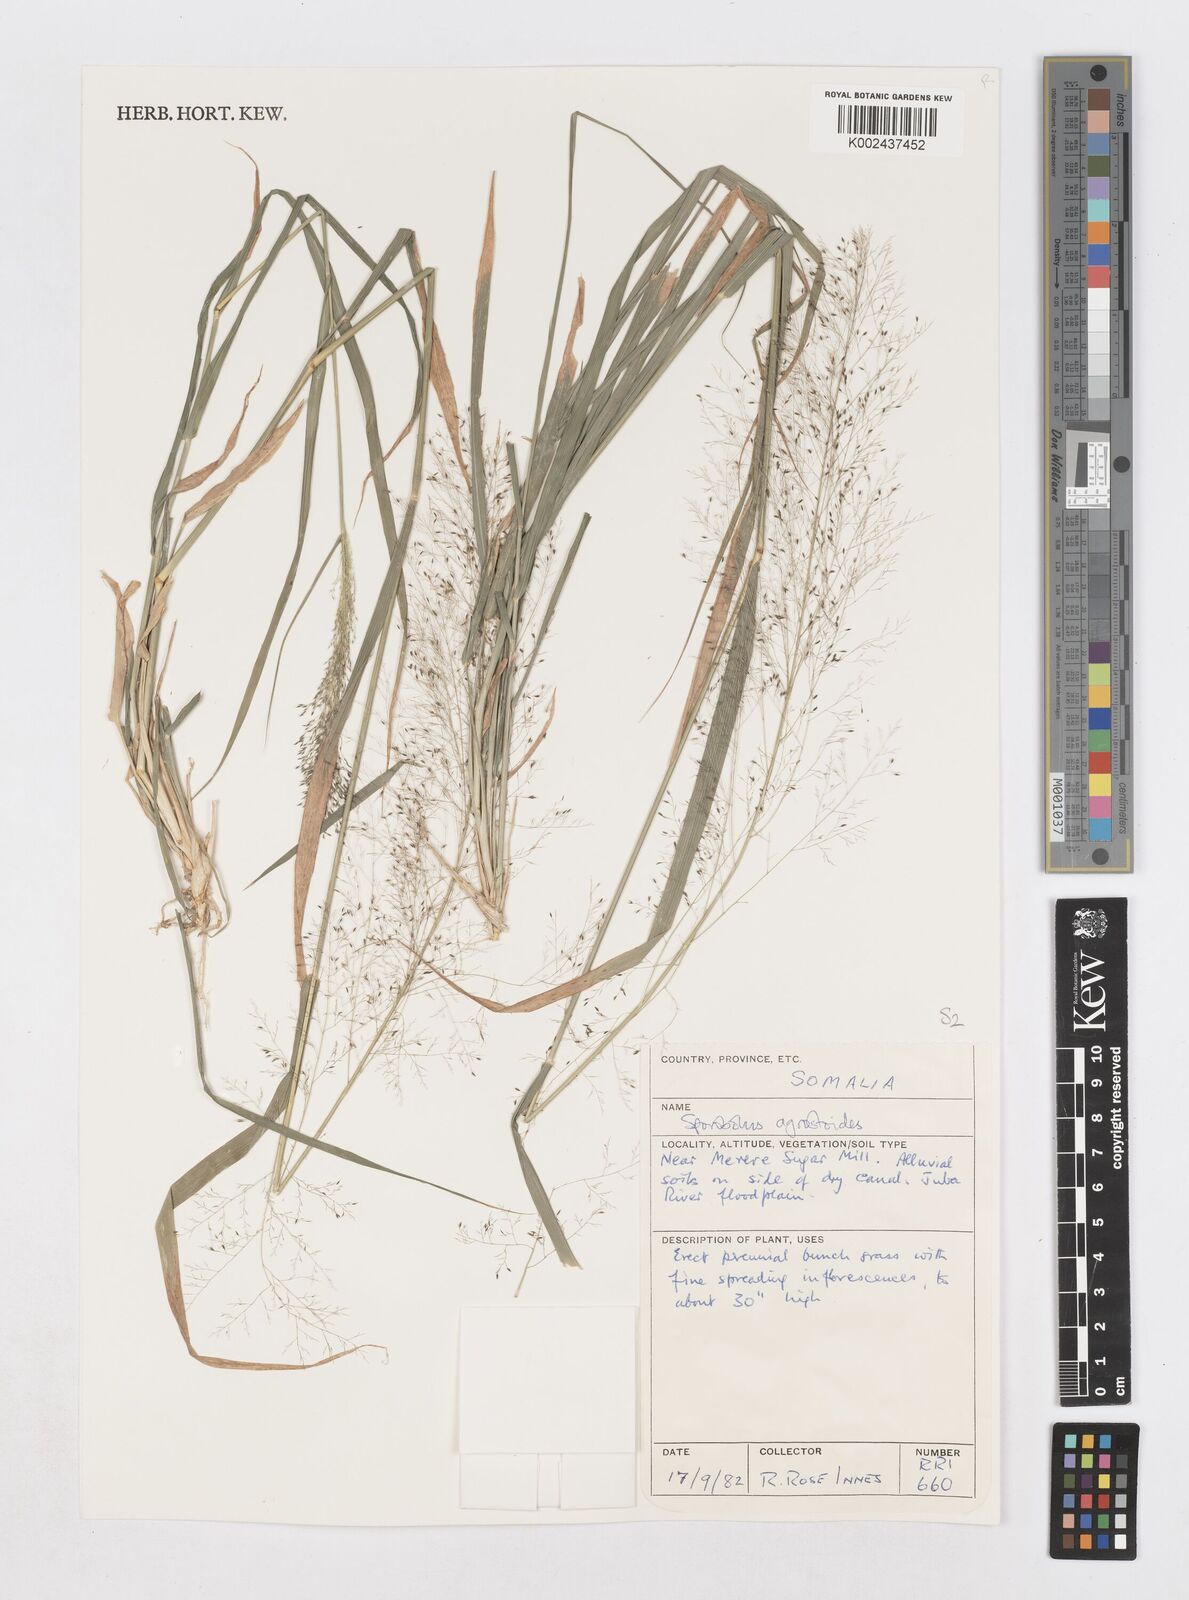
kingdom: Plantae
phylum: Tracheophyta
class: Liliopsida
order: Poales
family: Poaceae
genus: Sporobolus
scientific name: Sporobolus agrostoides
